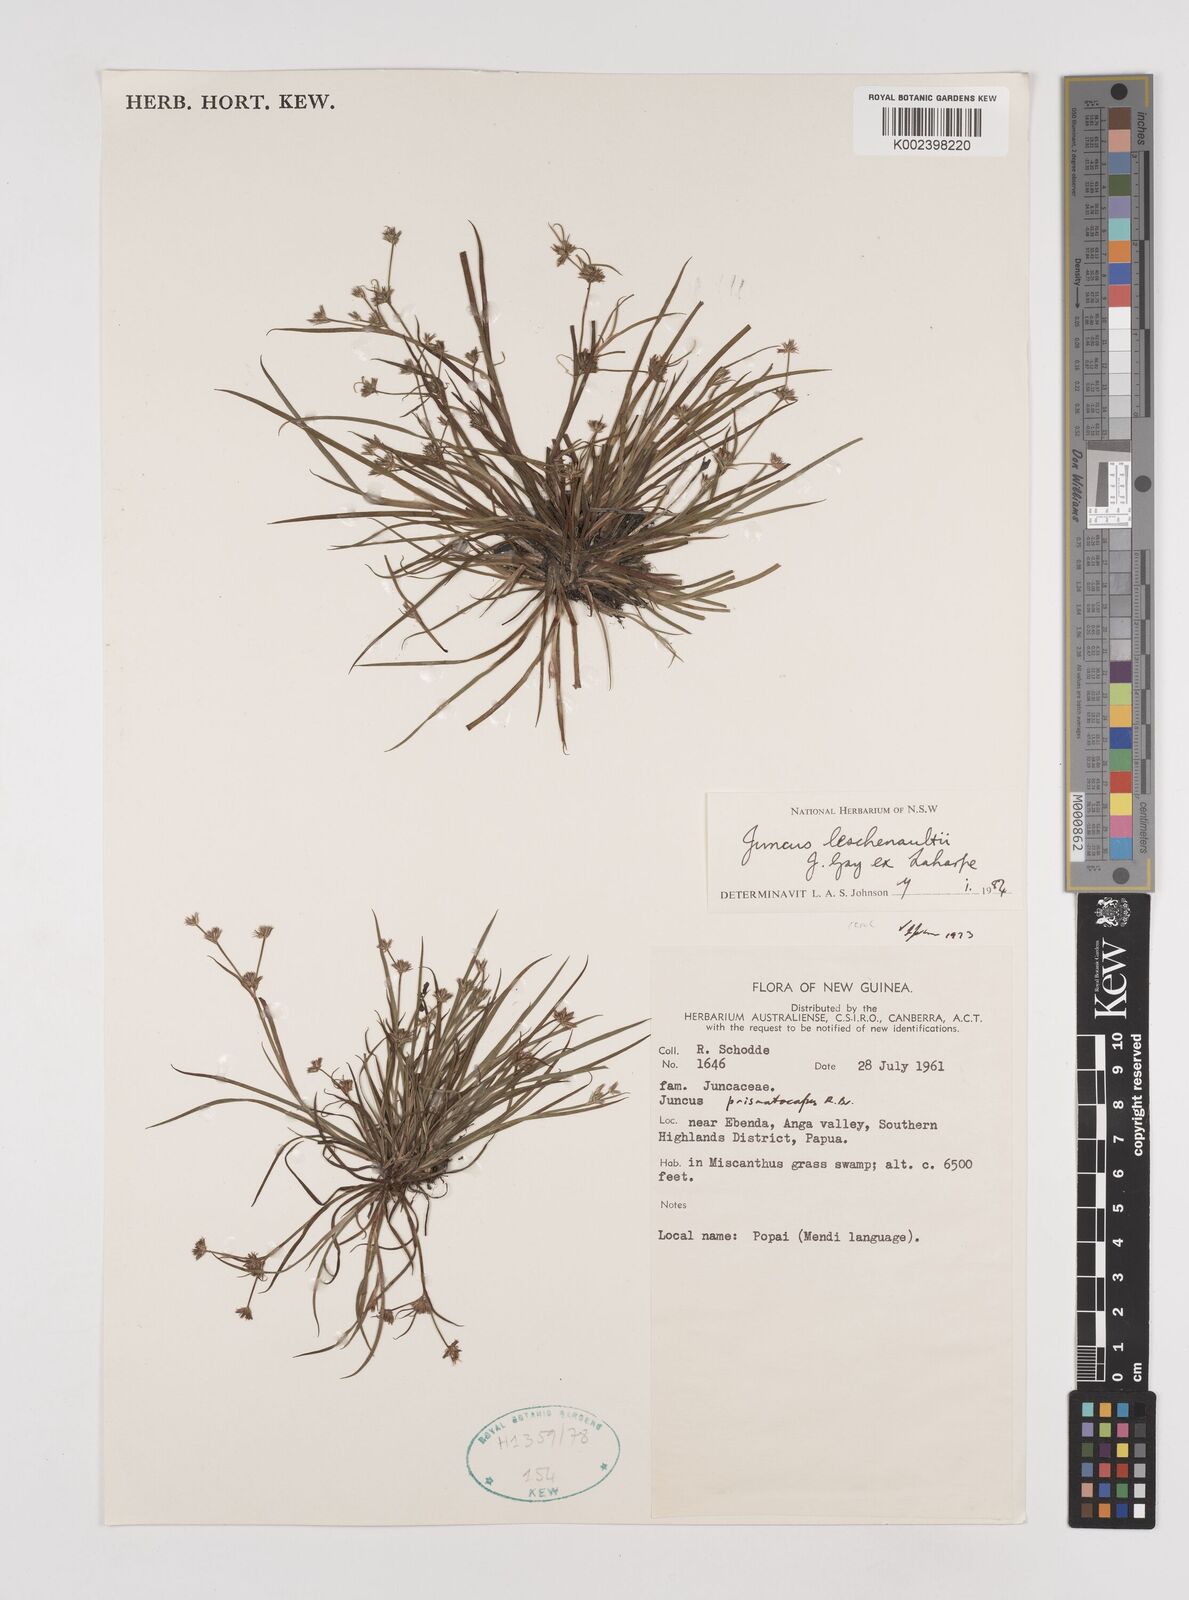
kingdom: Plantae
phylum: Tracheophyta
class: Liliopsida
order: Poales
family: Juncaceae
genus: Juncus
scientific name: Juncus prismatocarpus
